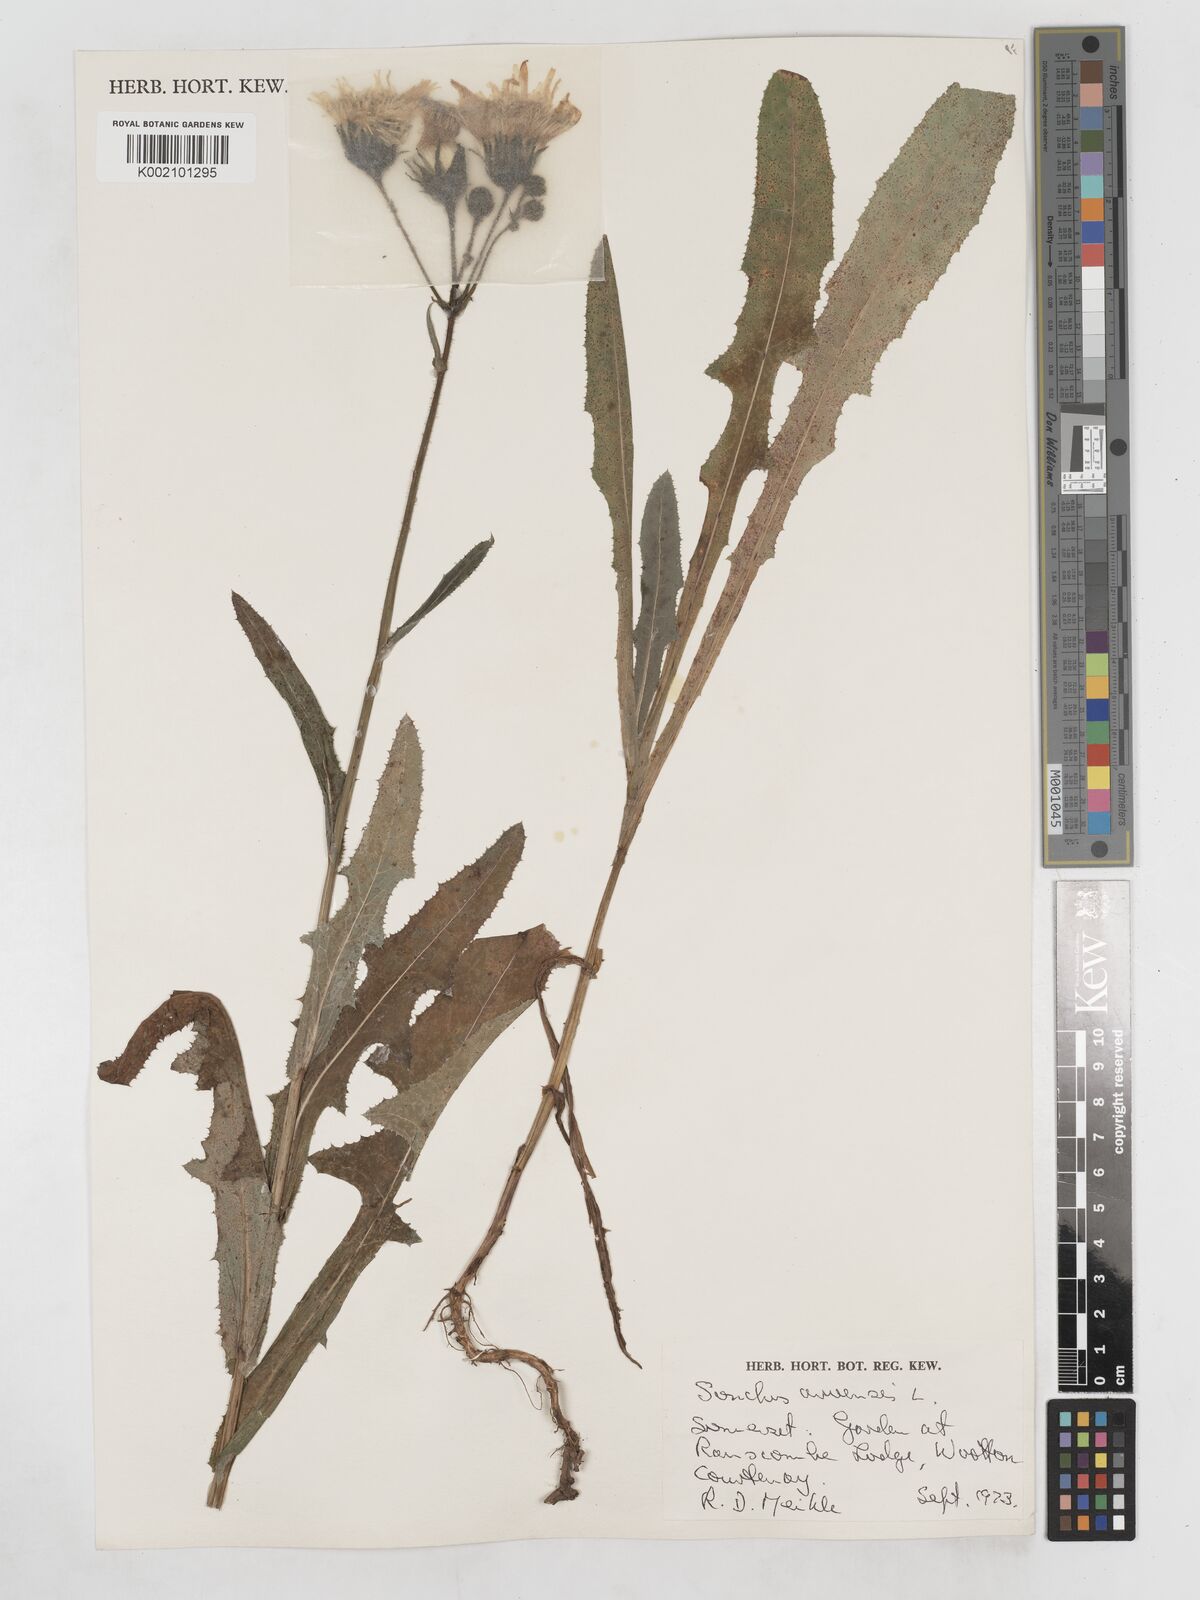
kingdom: Plantae
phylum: Tracheophyta
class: Magnoliopsida
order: Asterales
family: Asteraceae
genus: Sonchus
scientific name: Sonchus arvensis
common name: Perennial sow-thistle
